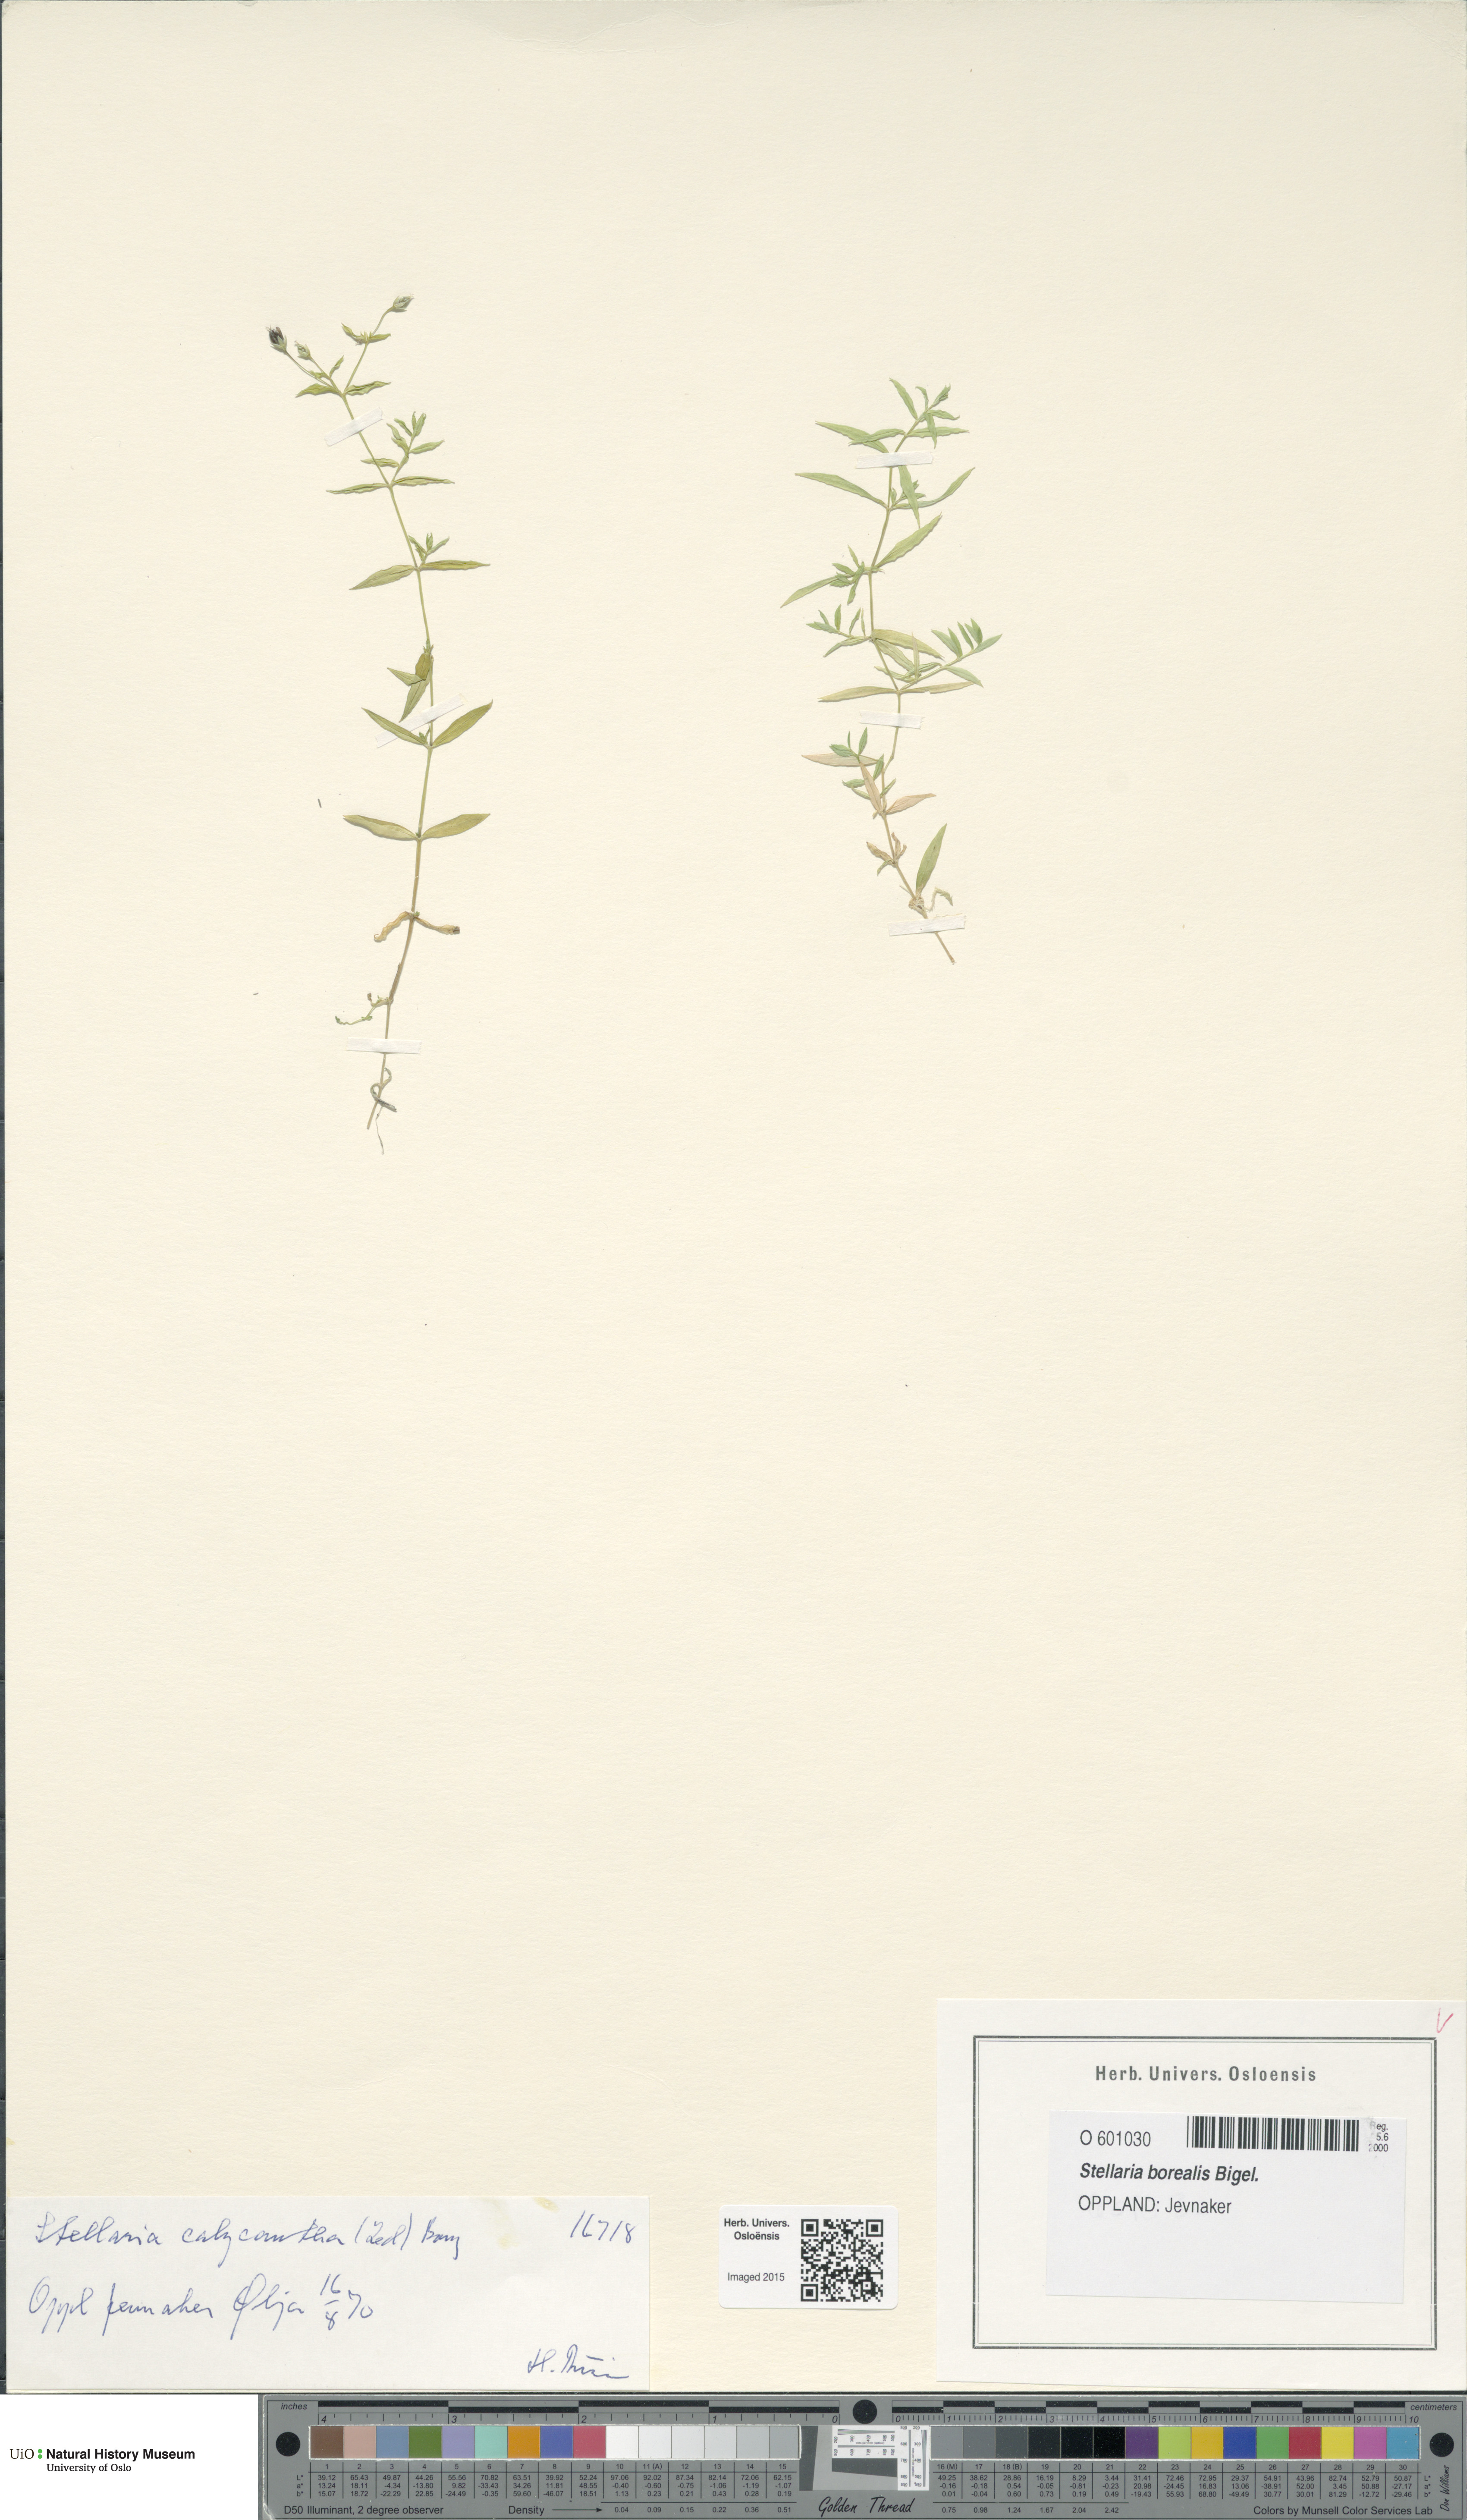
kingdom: Plantae
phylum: Tracheophyta
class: Magnoliopsida
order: Caryophyllales
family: Caryophyllaceae
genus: Stellaria
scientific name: Stellaria borealis
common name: Boreal starwort
